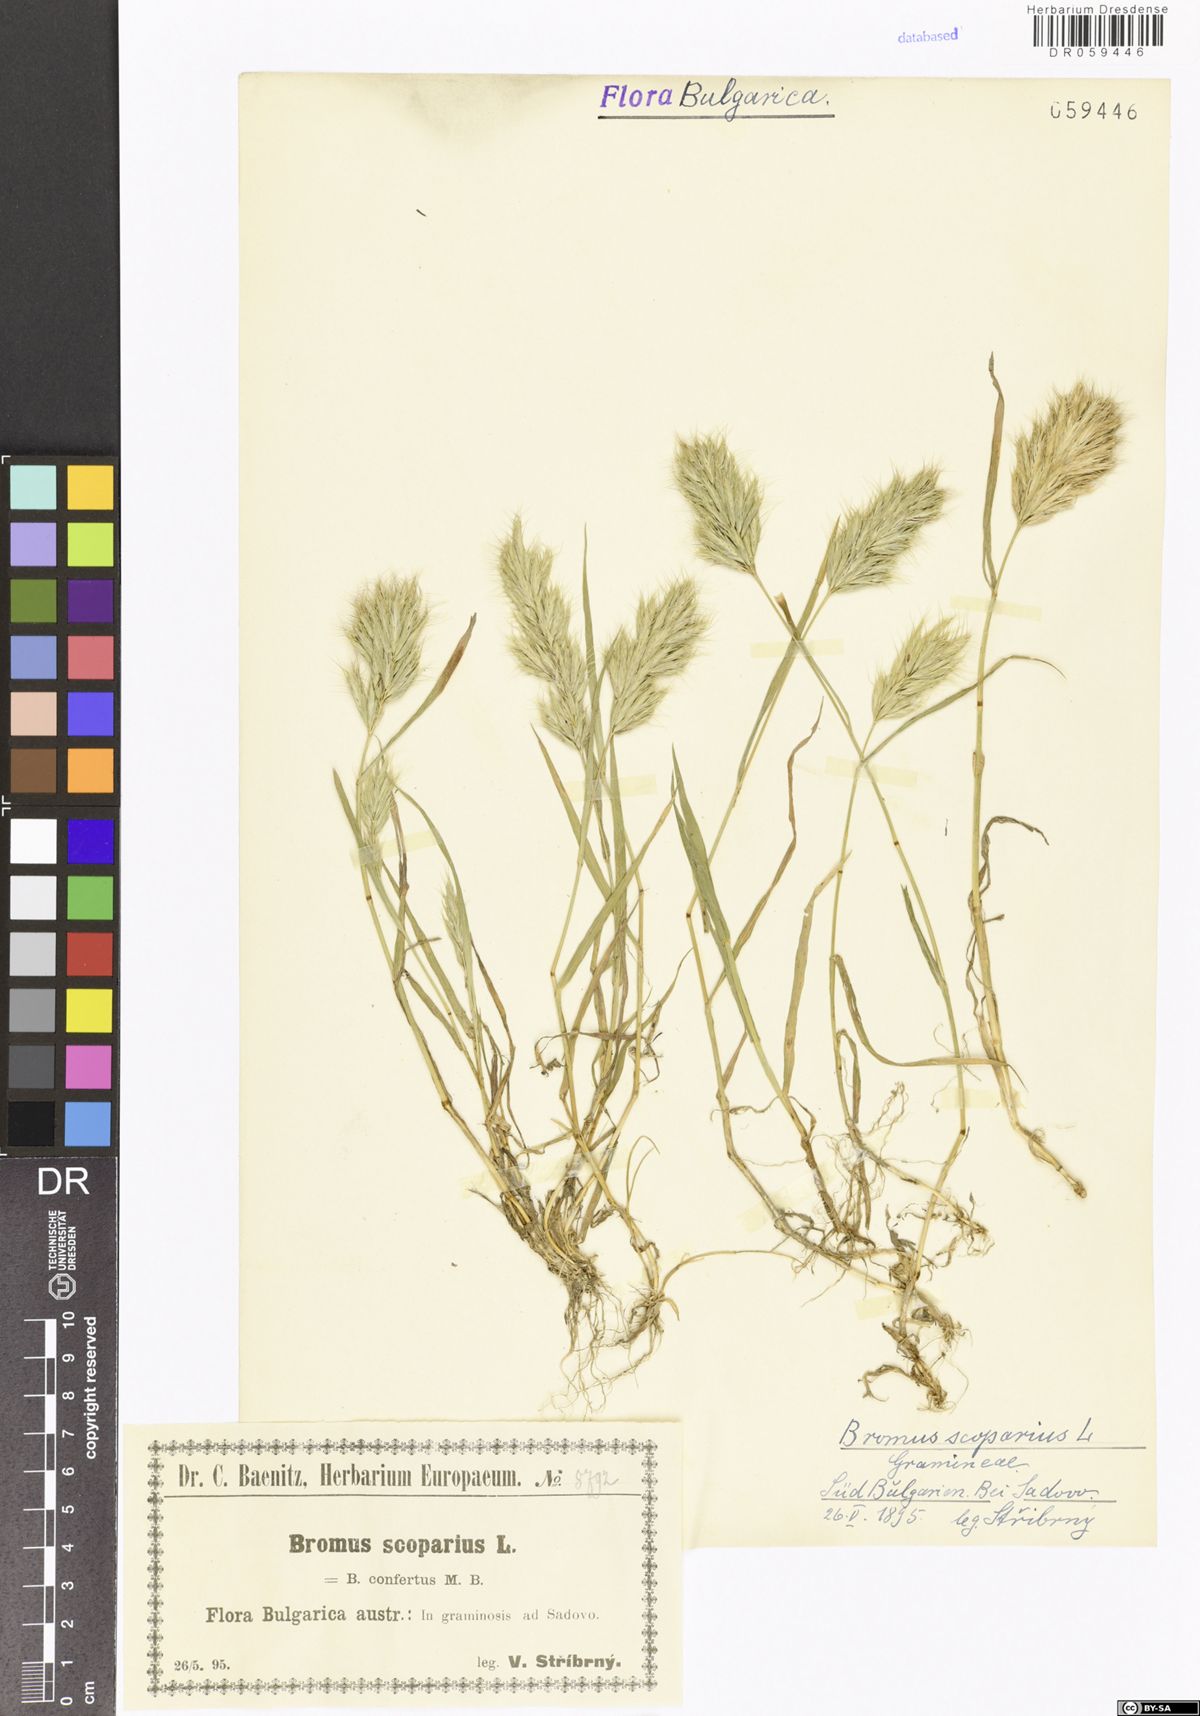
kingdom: Plantae
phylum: Tracheophyta
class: Liliopsida
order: Poales
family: Poaceae
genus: Bromus
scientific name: Bromus scoparius
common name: Broom brome
